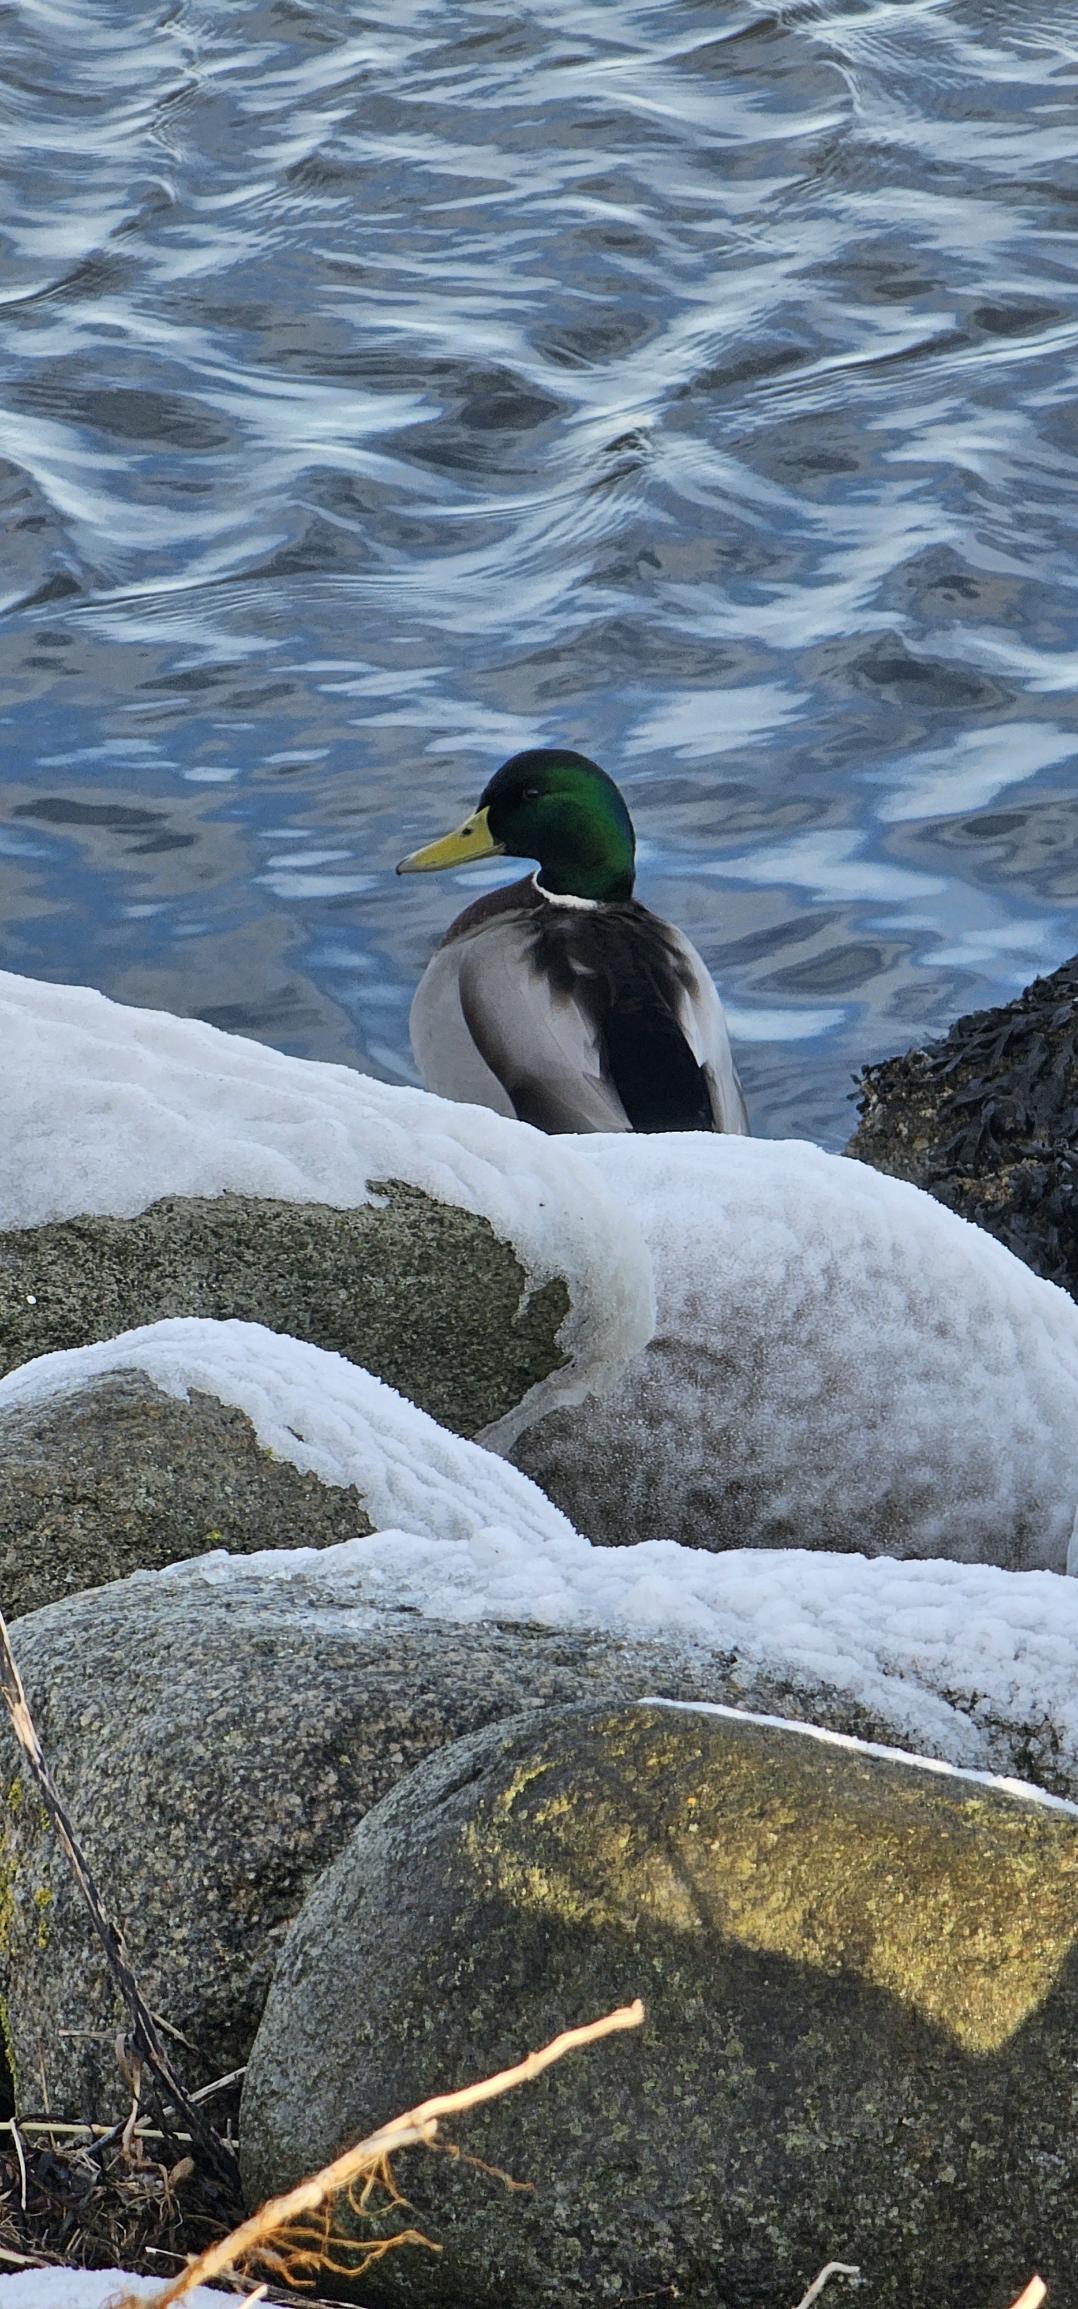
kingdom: Animalia
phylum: Chordata
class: Aves
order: Anseriformes
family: Anatidae
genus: Anas
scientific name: Anas platyrhynchos
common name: Gråand
